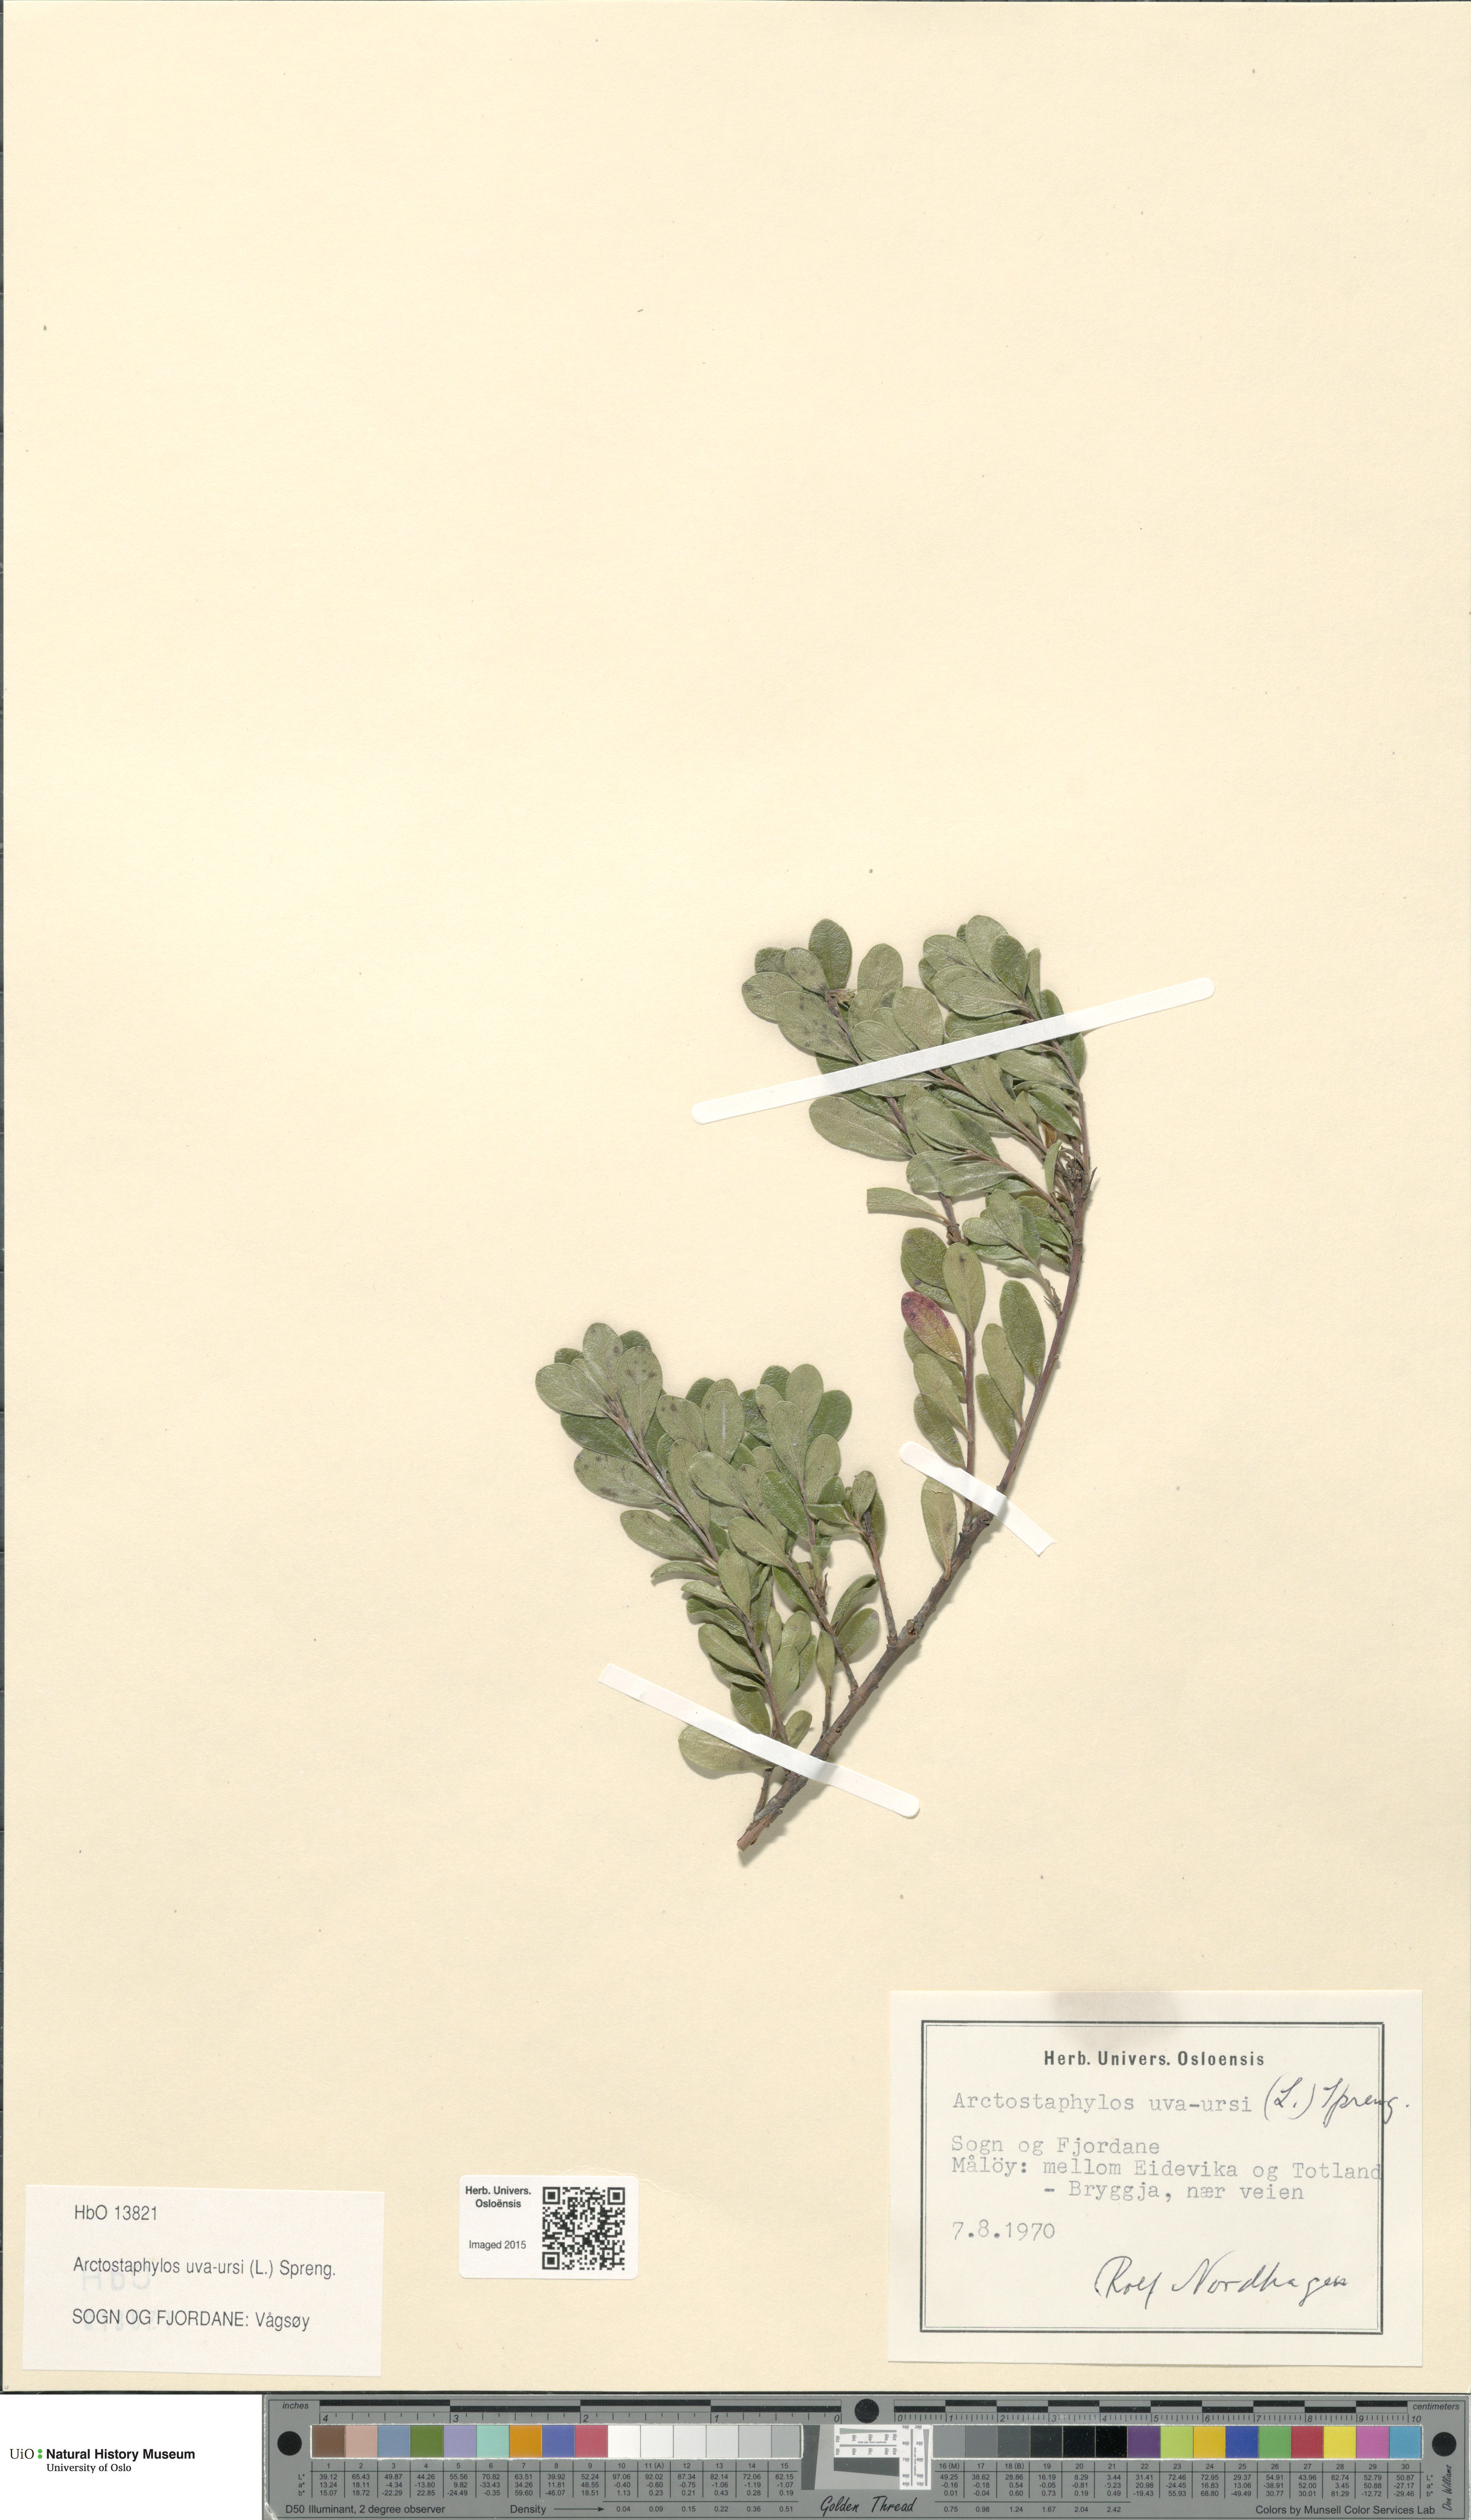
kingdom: Plantae
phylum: Tracheophyta
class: Magnoliopsida
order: Ericales
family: Ericaceae
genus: Arctostaphylos
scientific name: Arctostaphylos uva-ursi
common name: Bearberry
